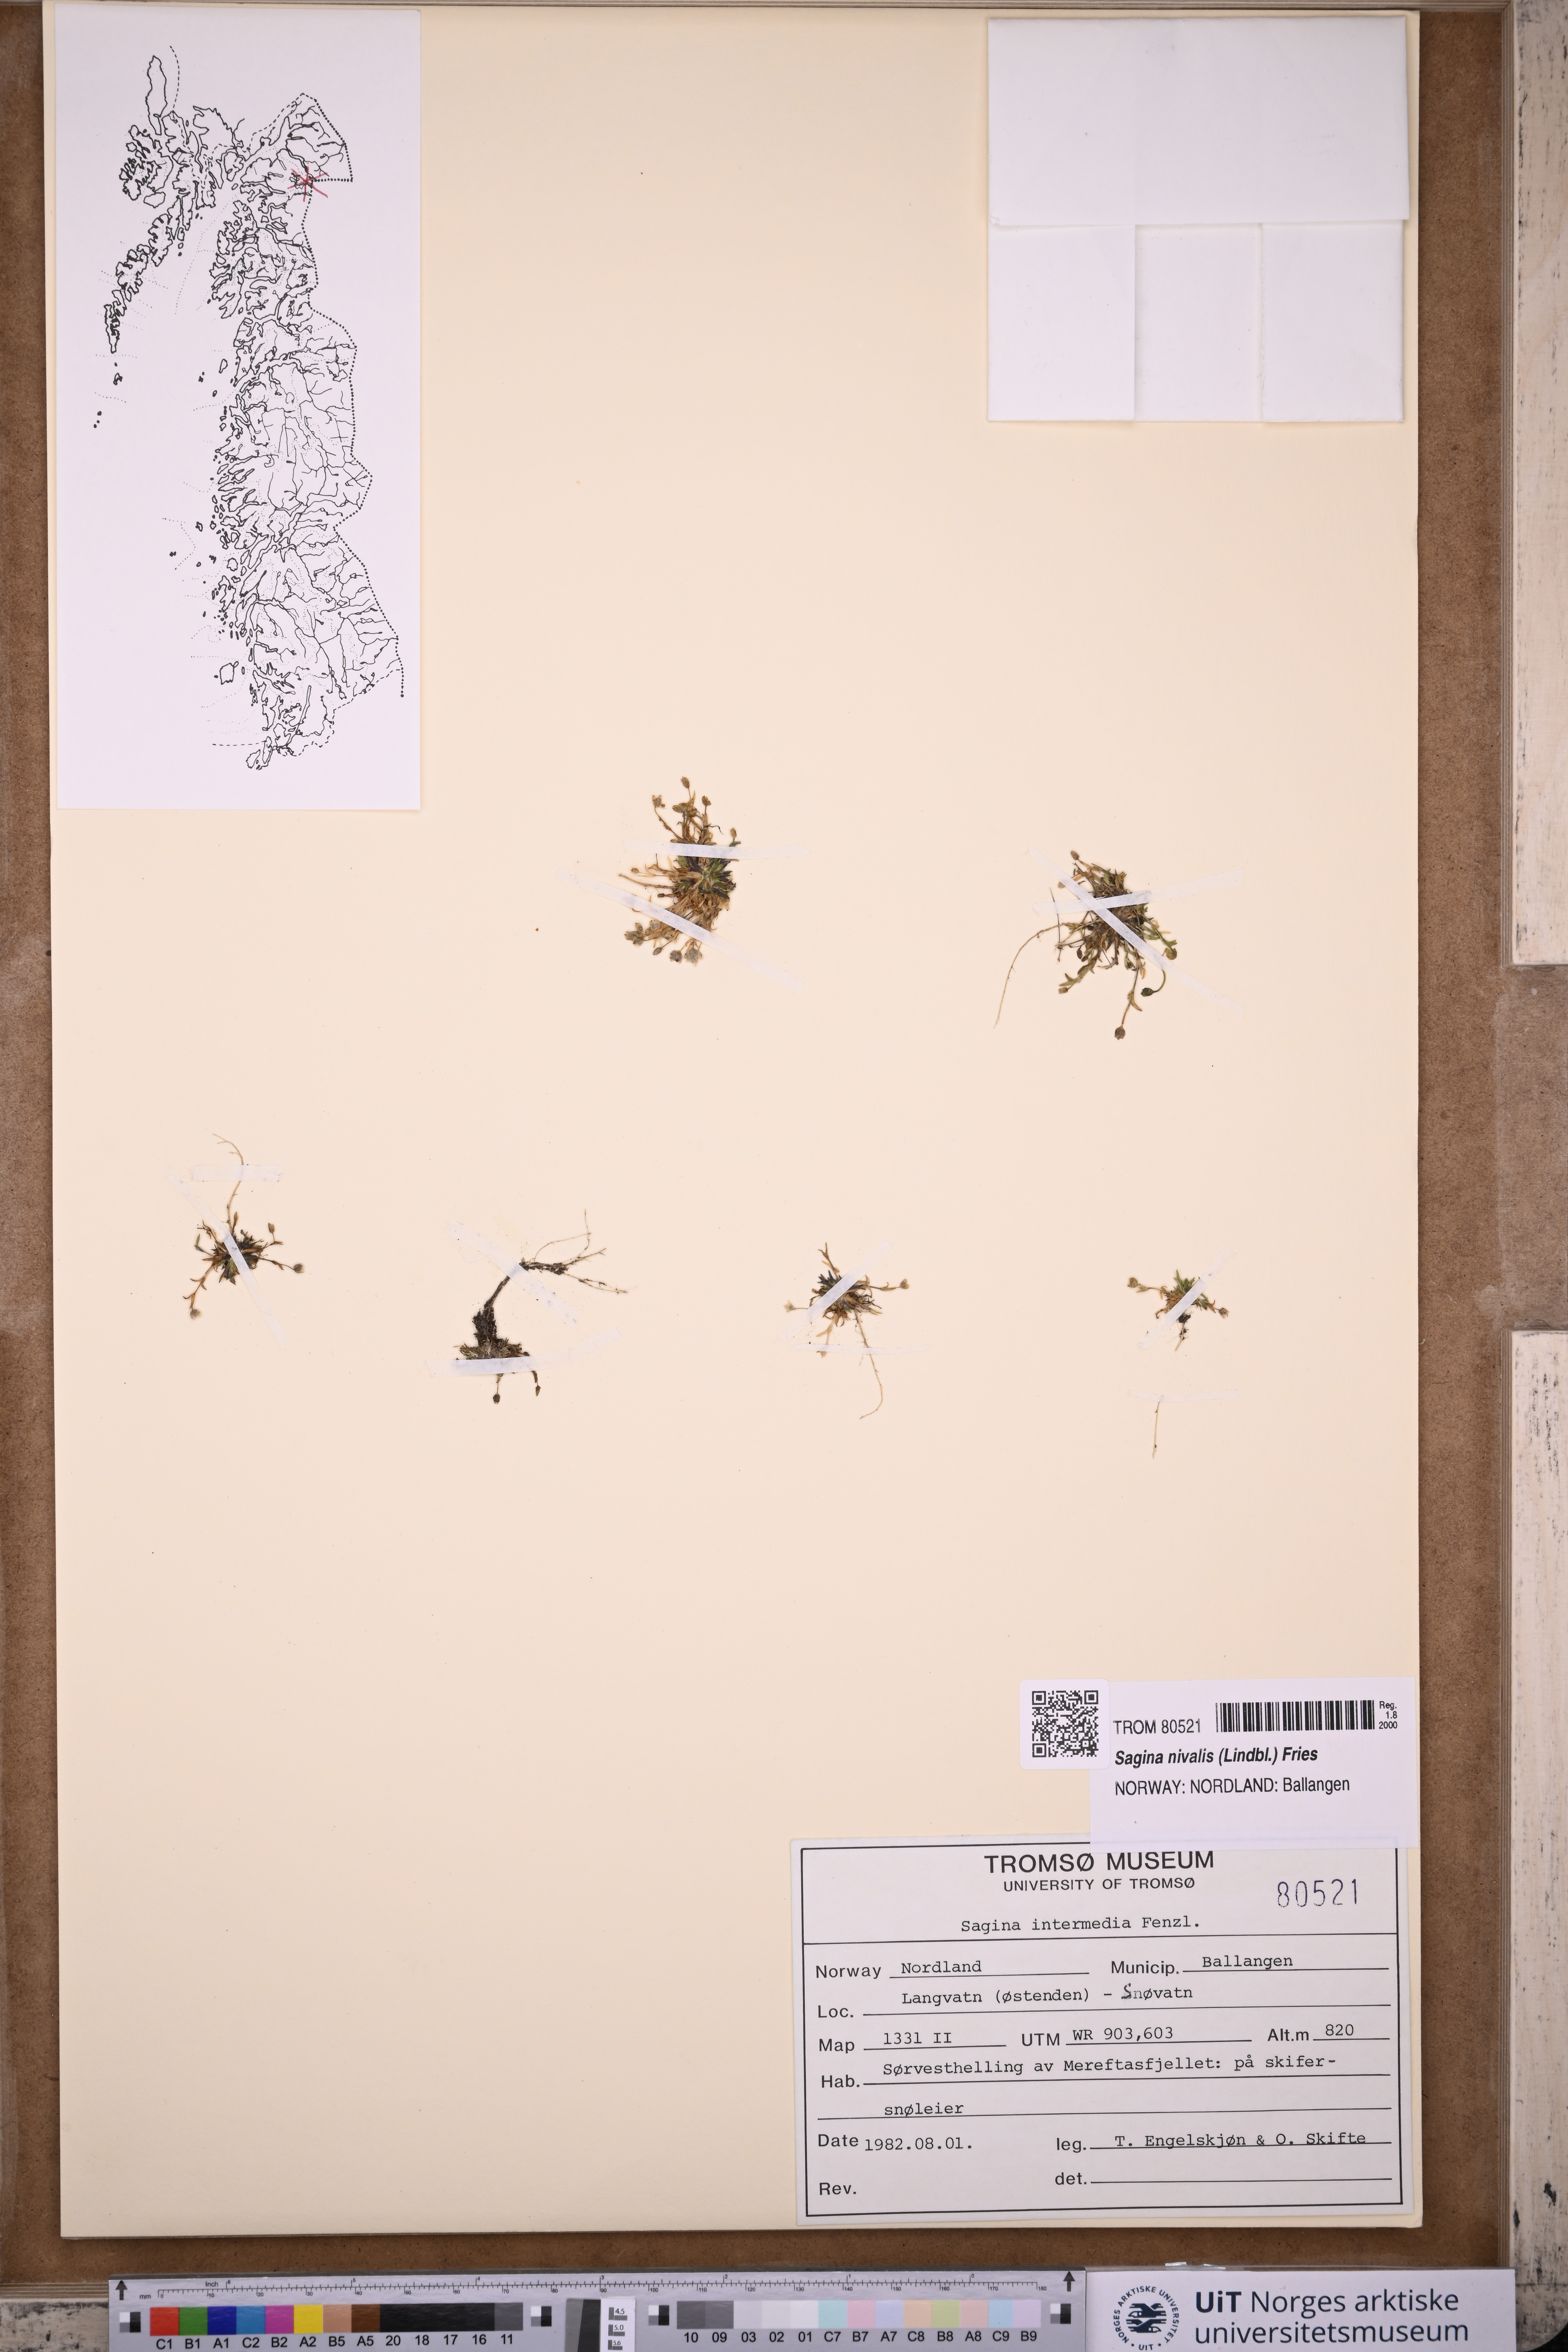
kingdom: Plantae
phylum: Tracheophyta
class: Magnoliopsida
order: Caryophyllales
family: Caryophyllaceae
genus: Sagina
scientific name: Sagina nivalis
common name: Snow pearlwort
